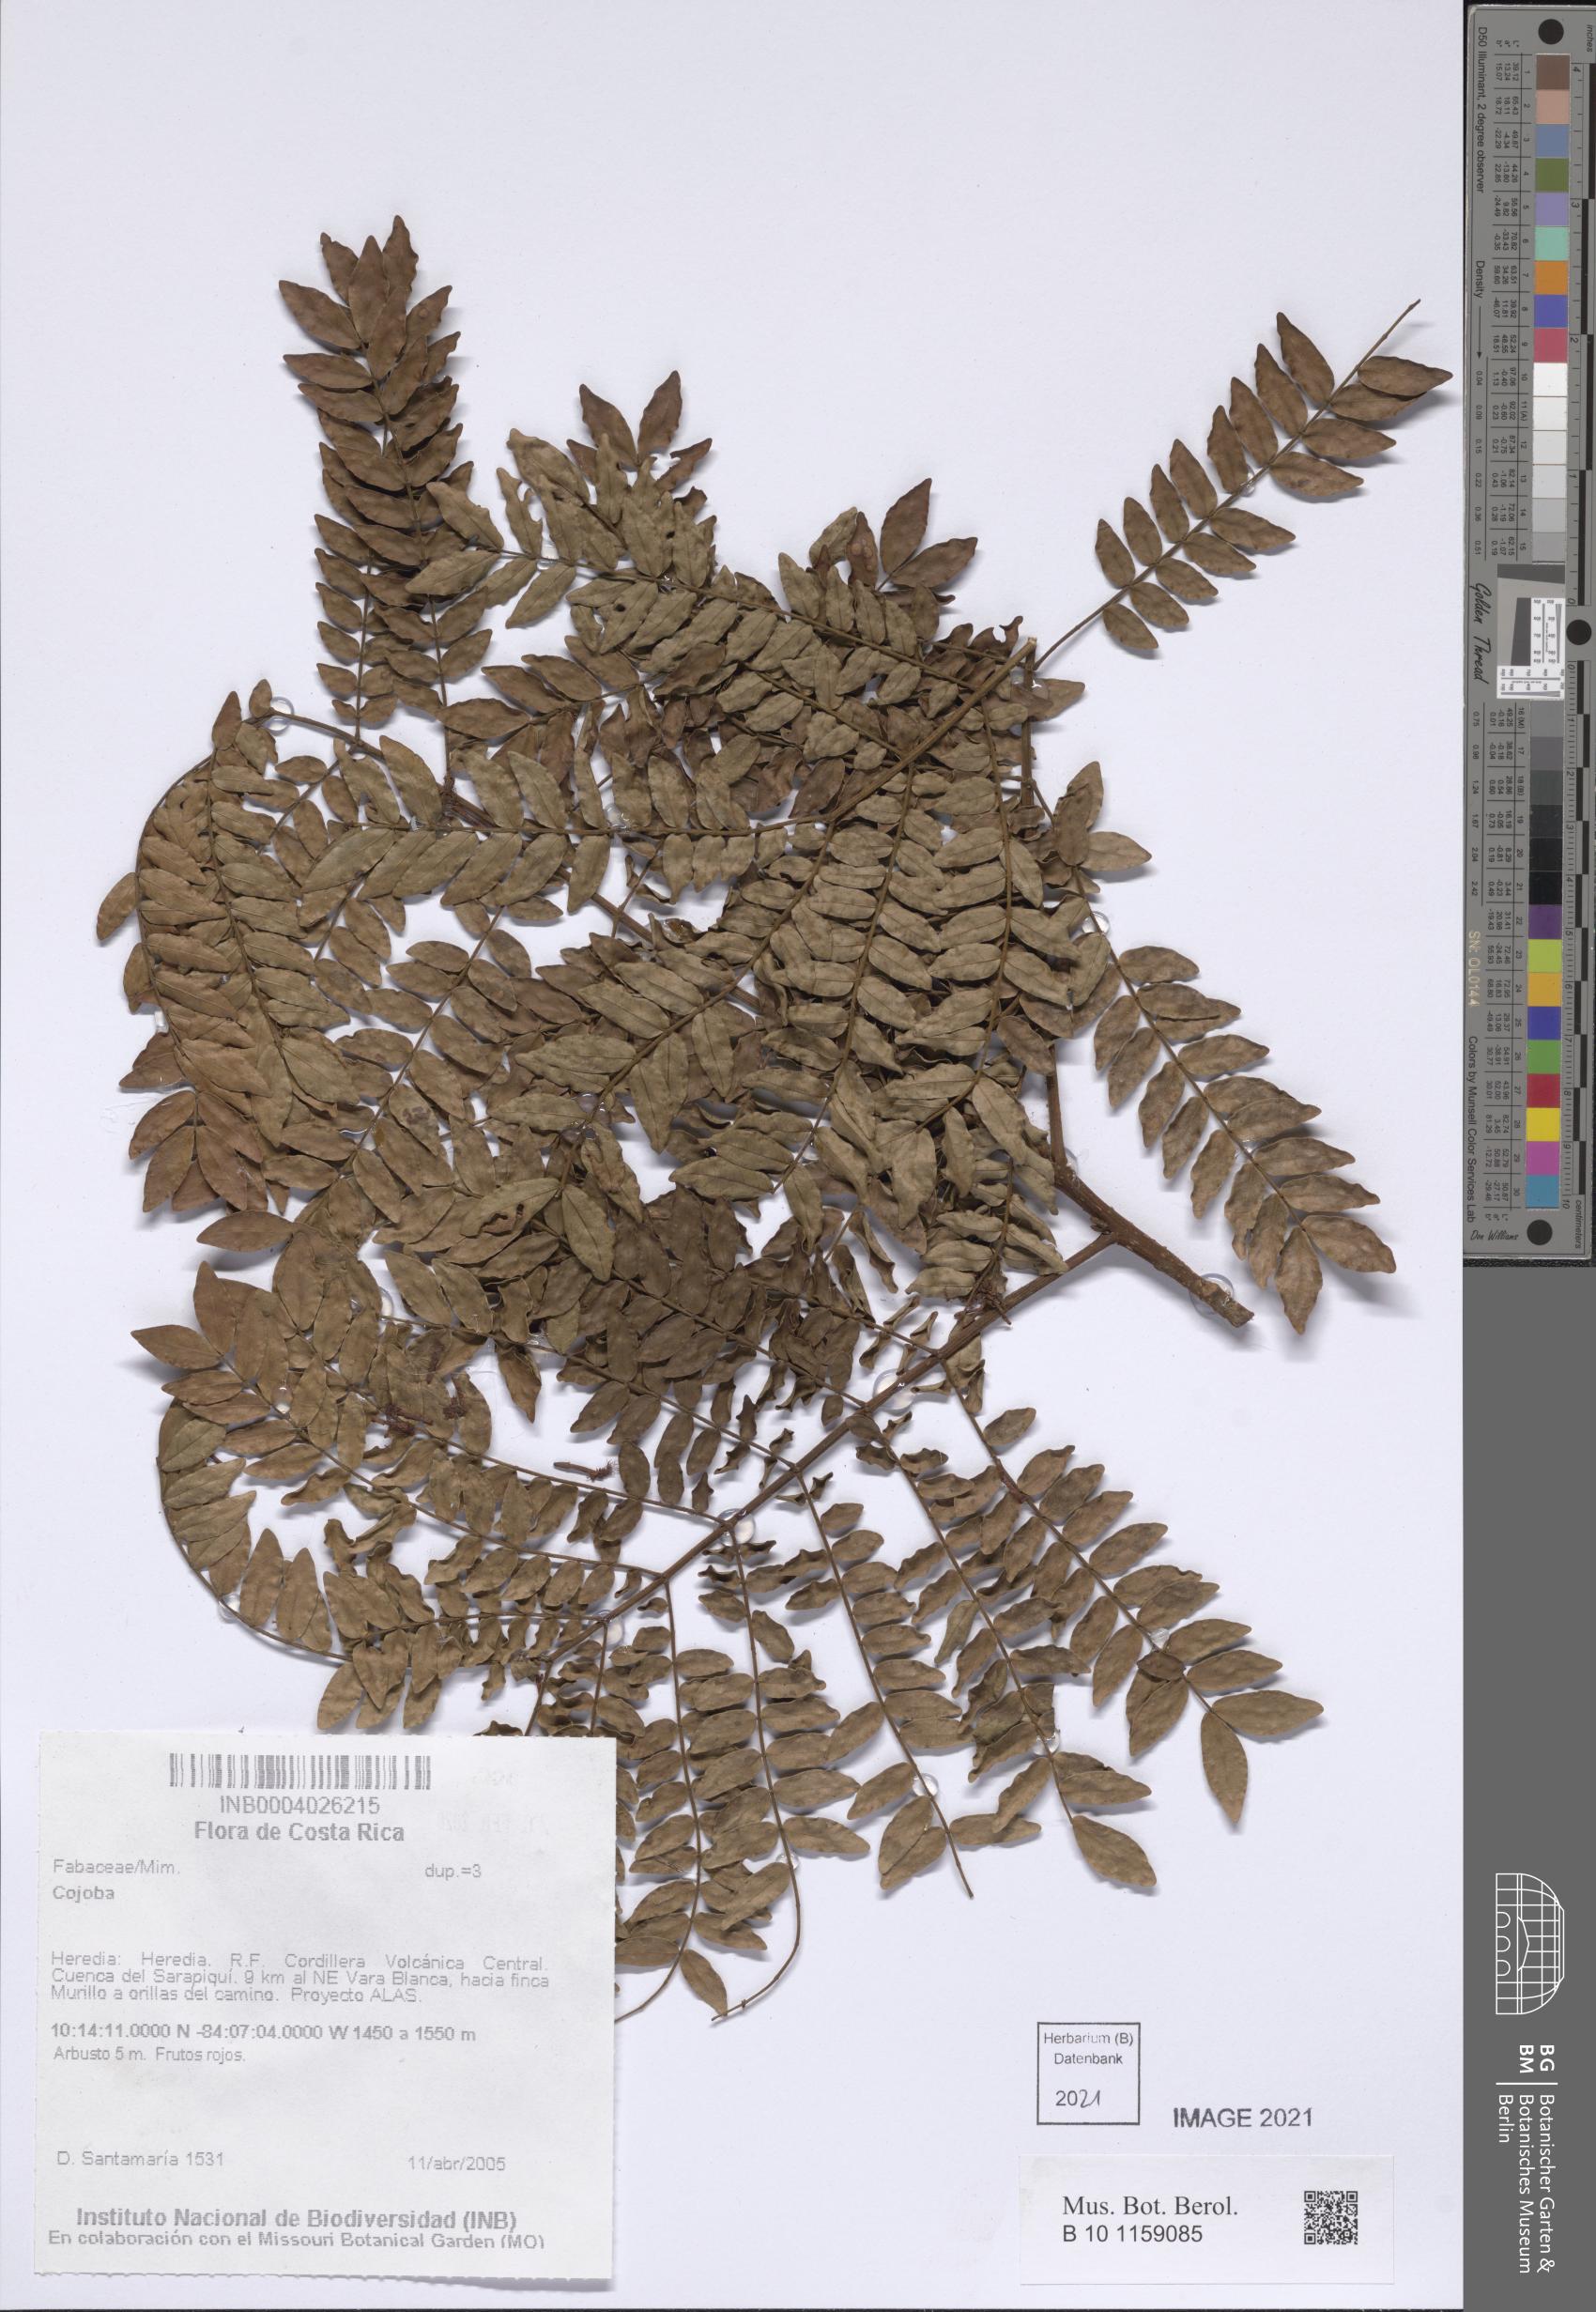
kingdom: Plantae
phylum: Tracheophyta
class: Magnoliopsida
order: Fabales
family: Fabaceae
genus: Cojoba
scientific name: Cojoba
